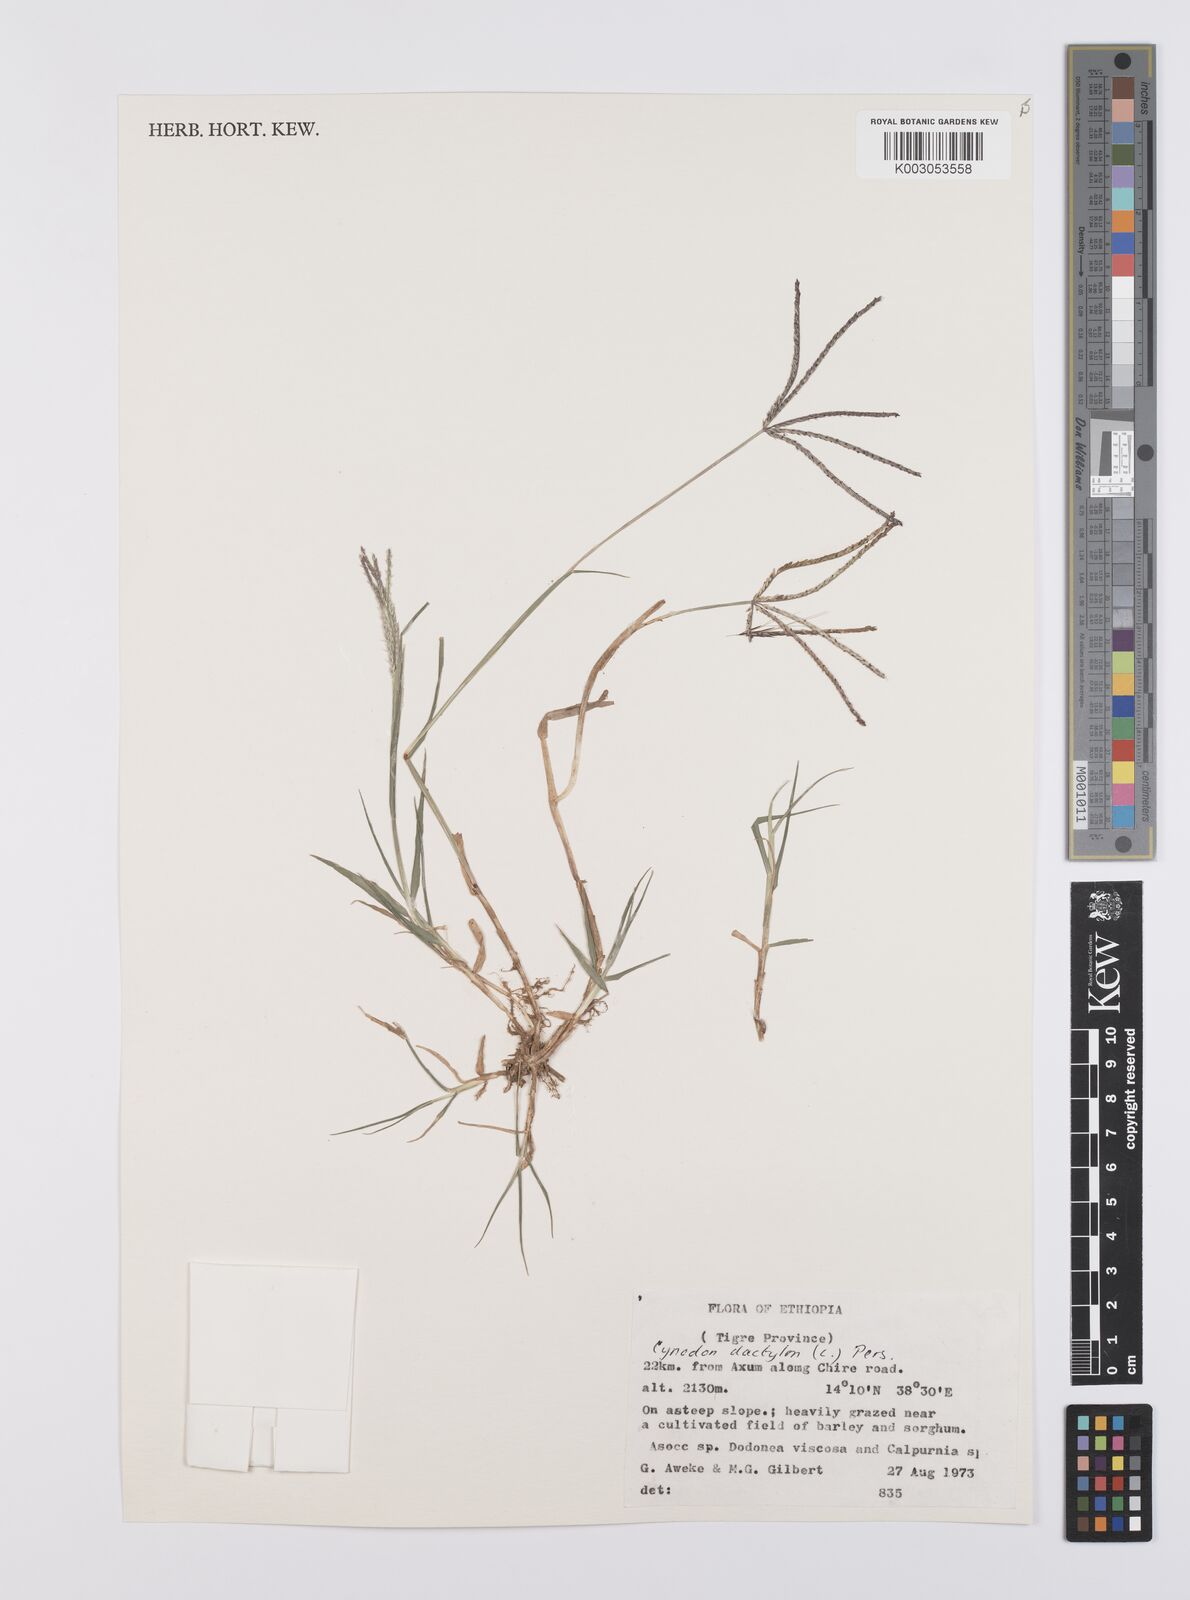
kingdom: Plantae
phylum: Tracheophyta
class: Liliopsida
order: Poales
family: Poaceae
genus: Cynodon
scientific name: Cynodon dactylon
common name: Bermuda grass
